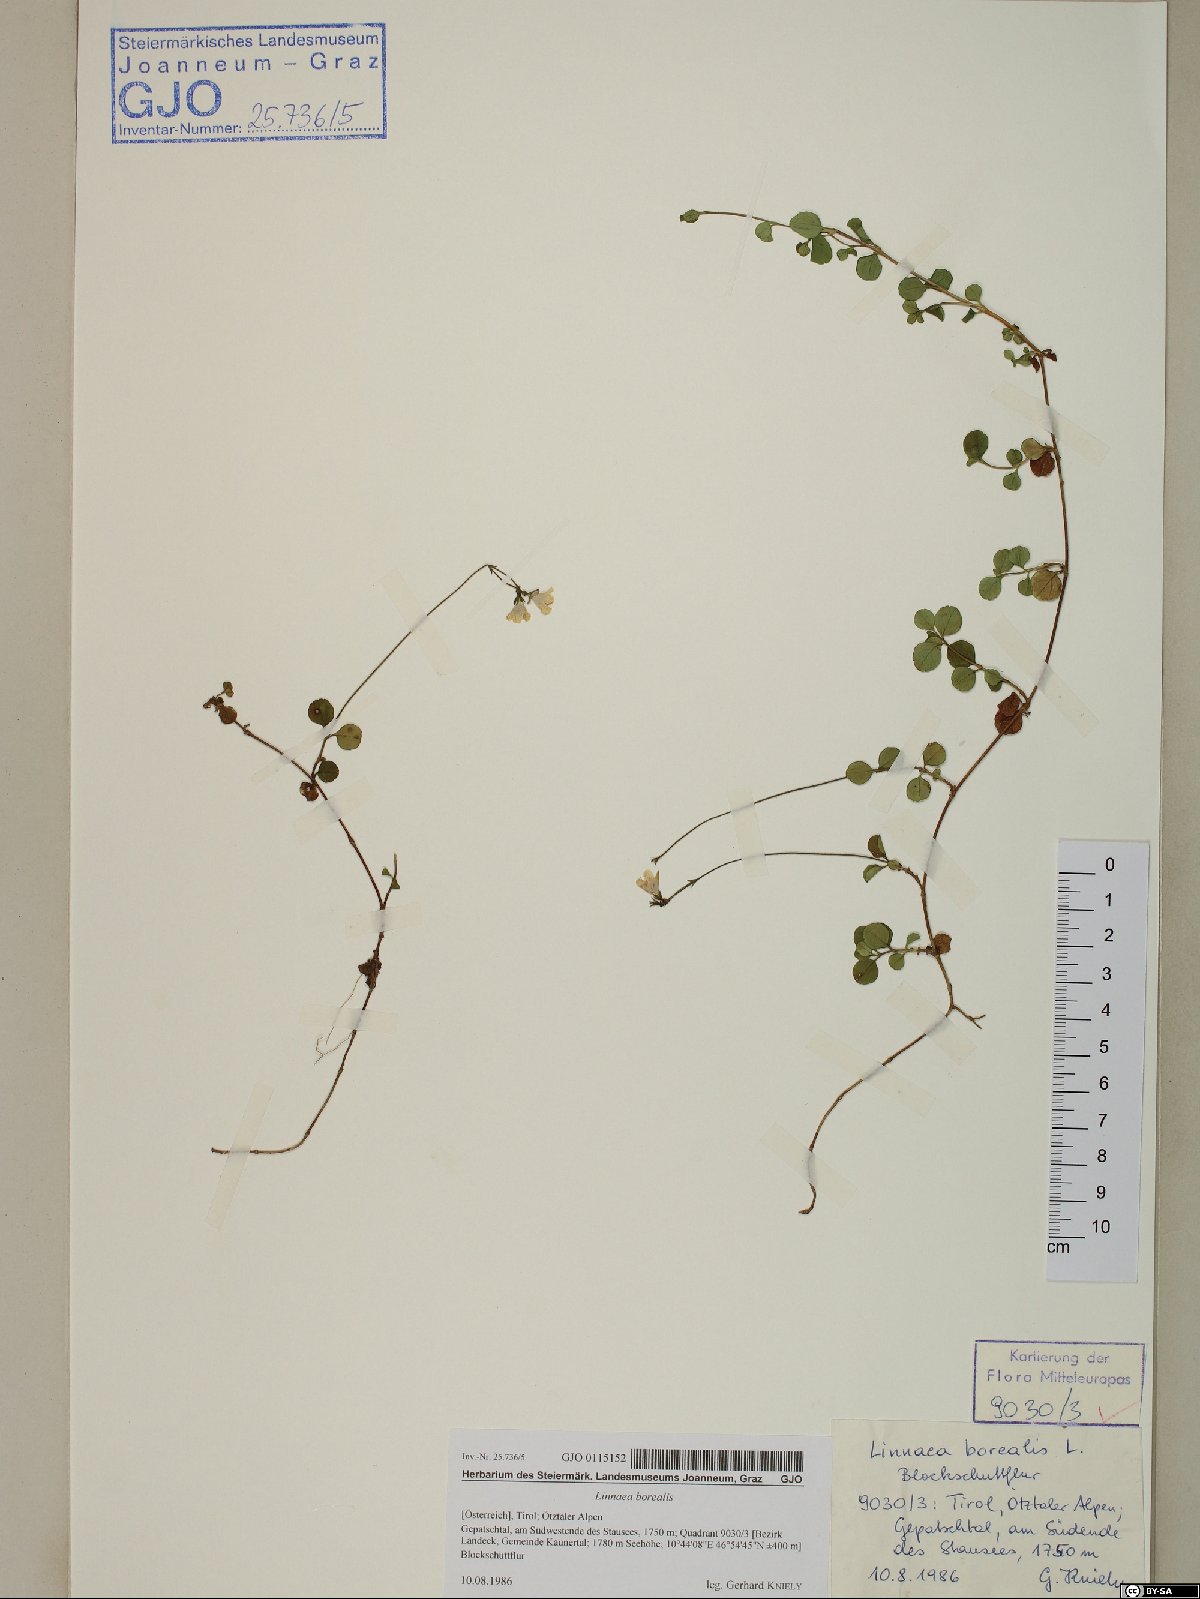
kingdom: Plantae
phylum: Tracheophyta
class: Magnoliopsida
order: Dipsacales
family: Caprifoliaceae
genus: Linnaea
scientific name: Linnaea borealis
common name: Twinflower
